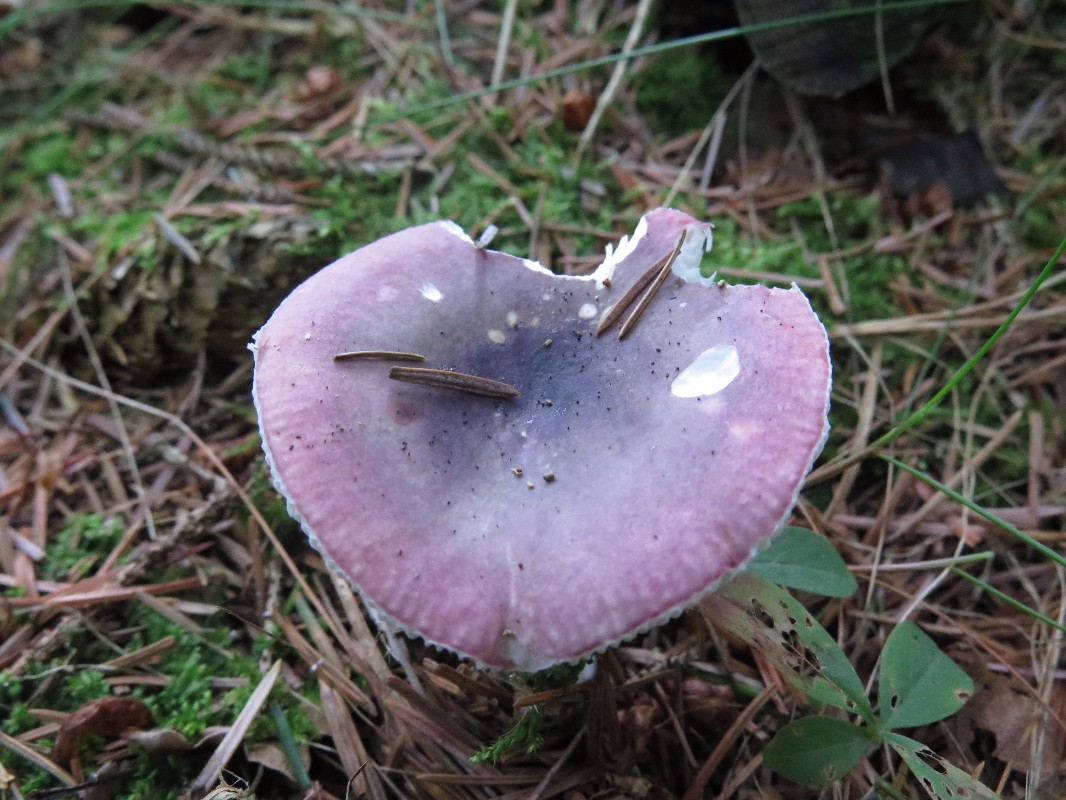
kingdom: Fungi
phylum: Basidiomycota
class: Agaricomycetes
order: Russulales
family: Russulaceae
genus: Russula
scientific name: Russula fragilis
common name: savbladet skørhat
